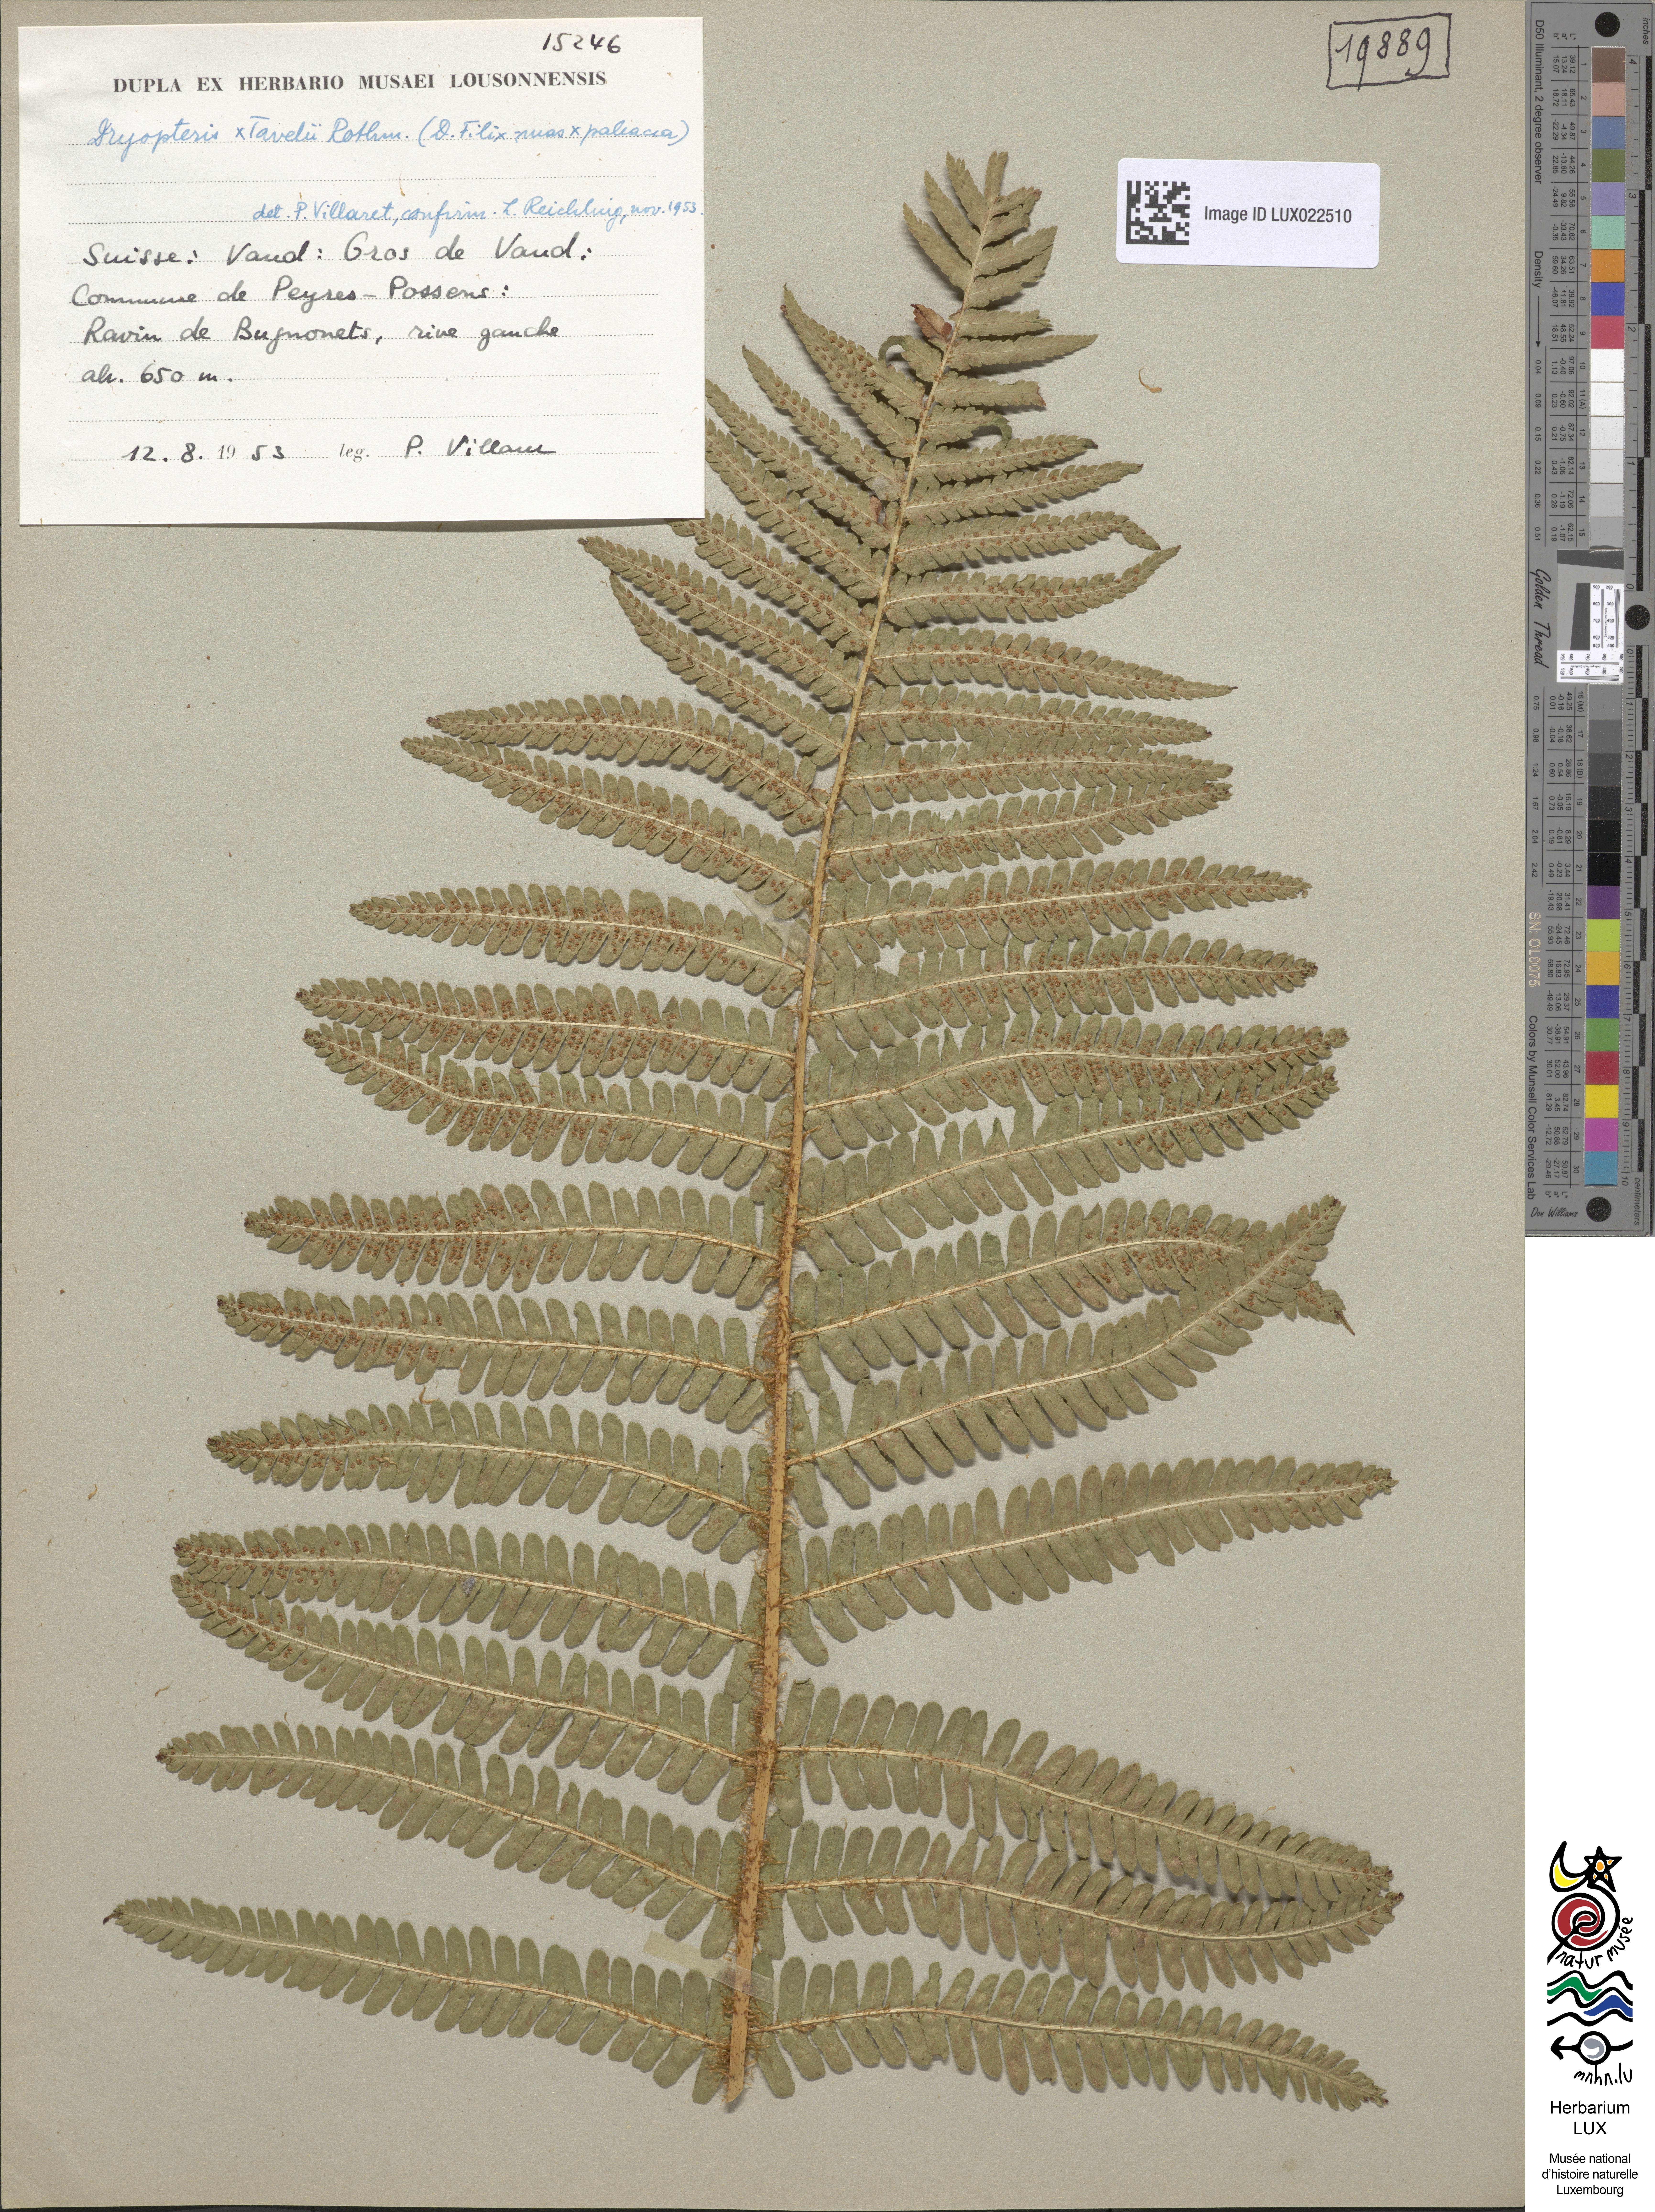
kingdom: Plantae
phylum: Tracheophyta
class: Polypodiopsida
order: Polypodiales
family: Dryopteridaceae
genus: Dryopteris
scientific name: Dryopteris borreri
